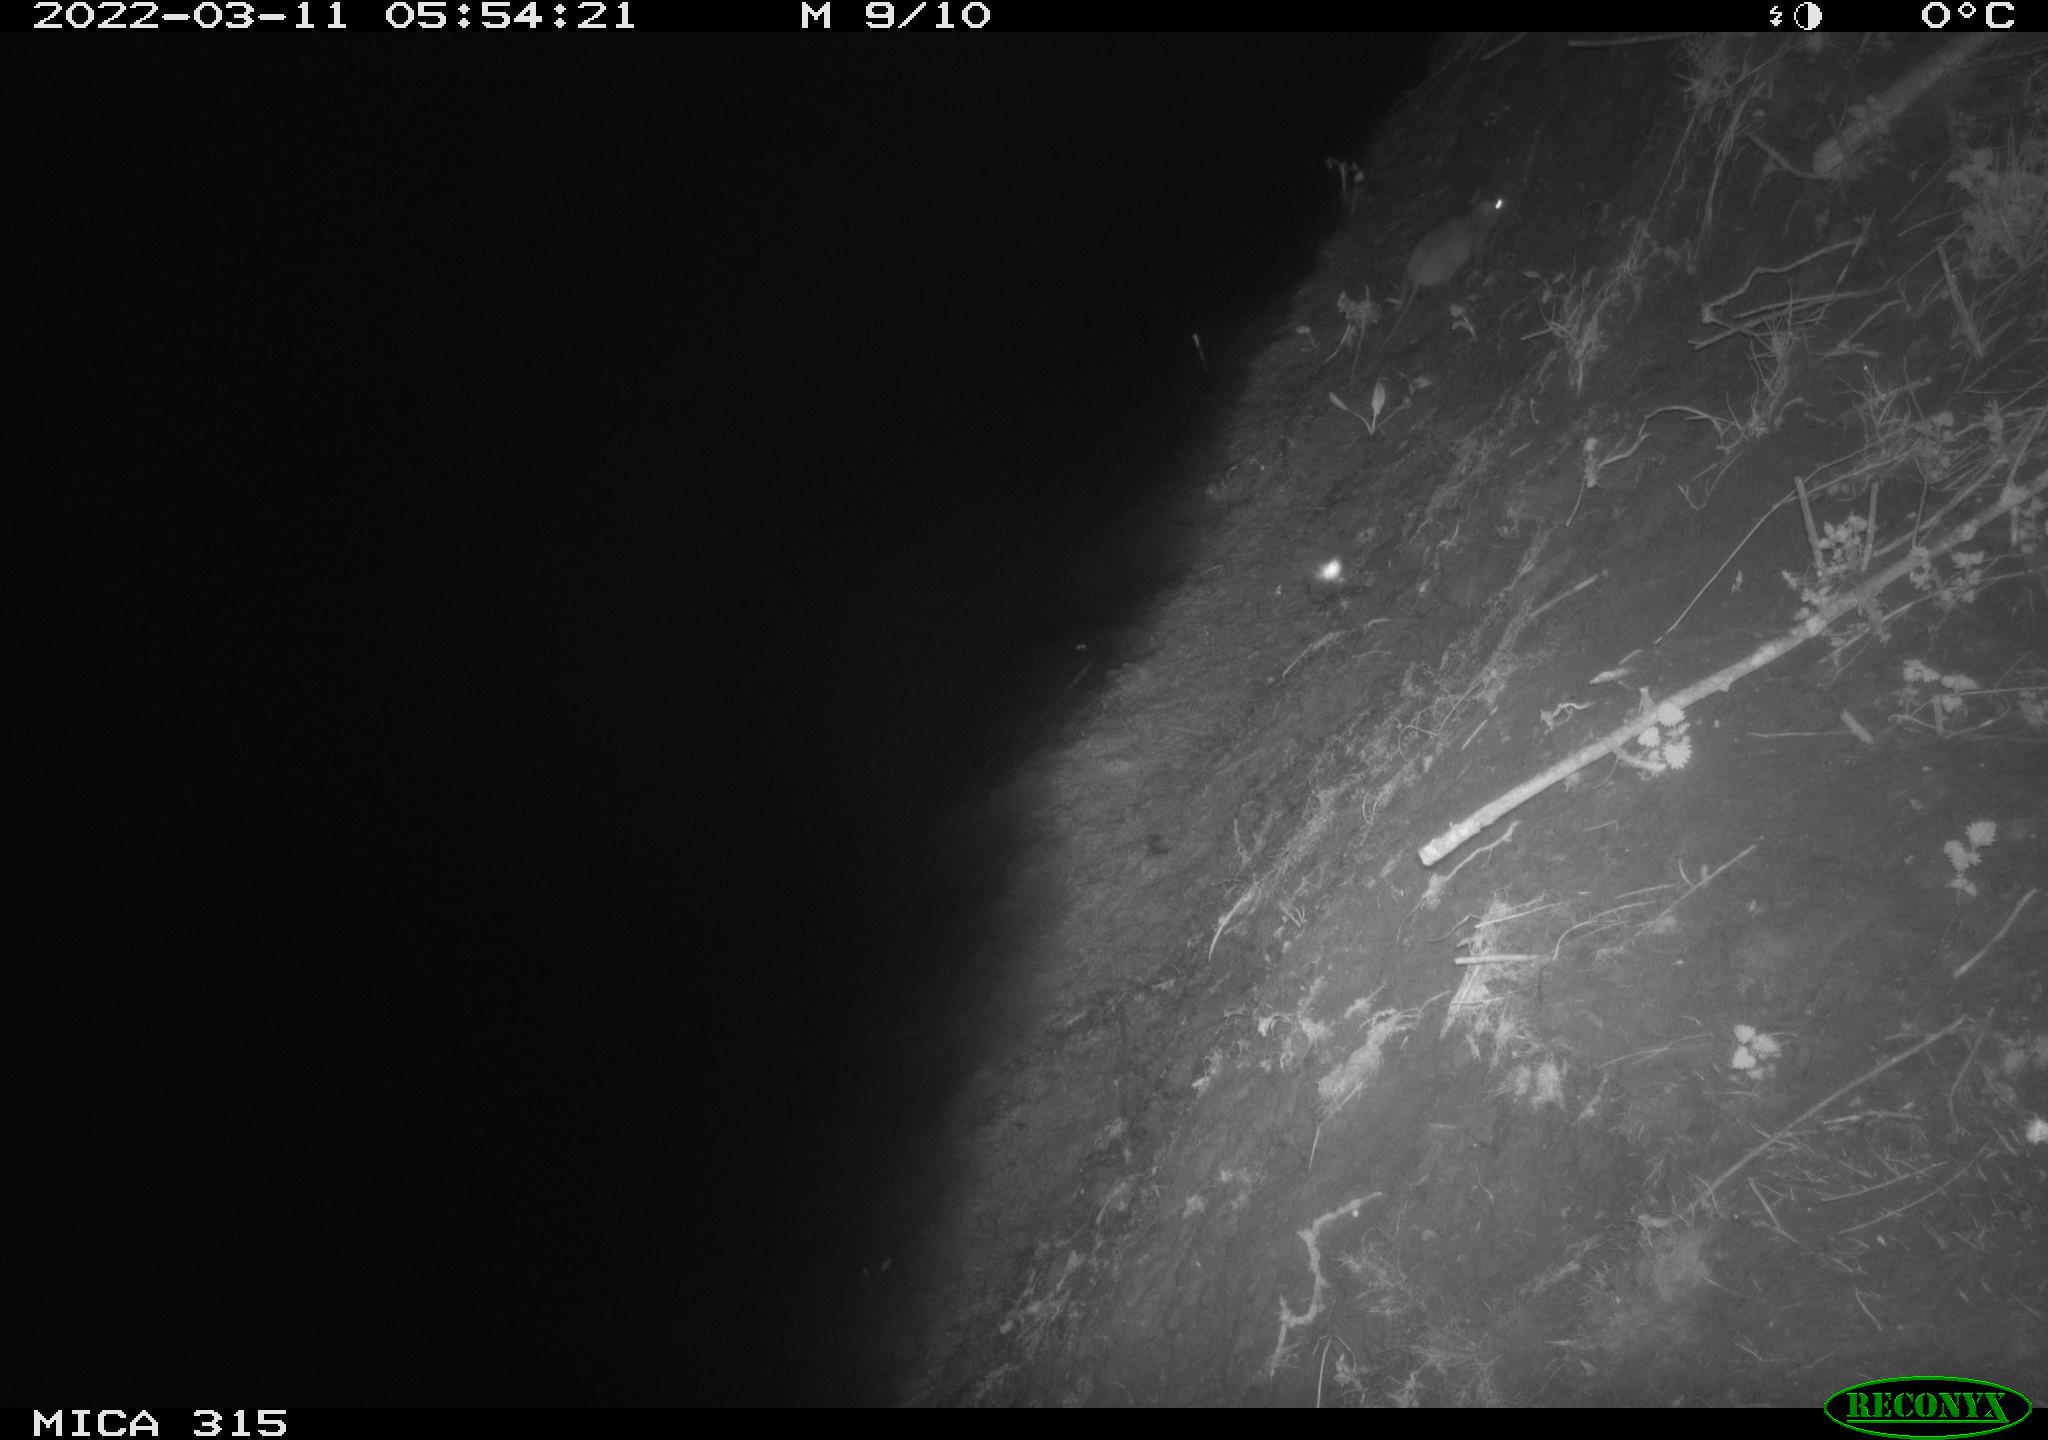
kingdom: Animalia
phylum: Chordata
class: Mammalia
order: Rodentia
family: Muridae
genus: Rattus
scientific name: Rattus norvegicus
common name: Brown rat
